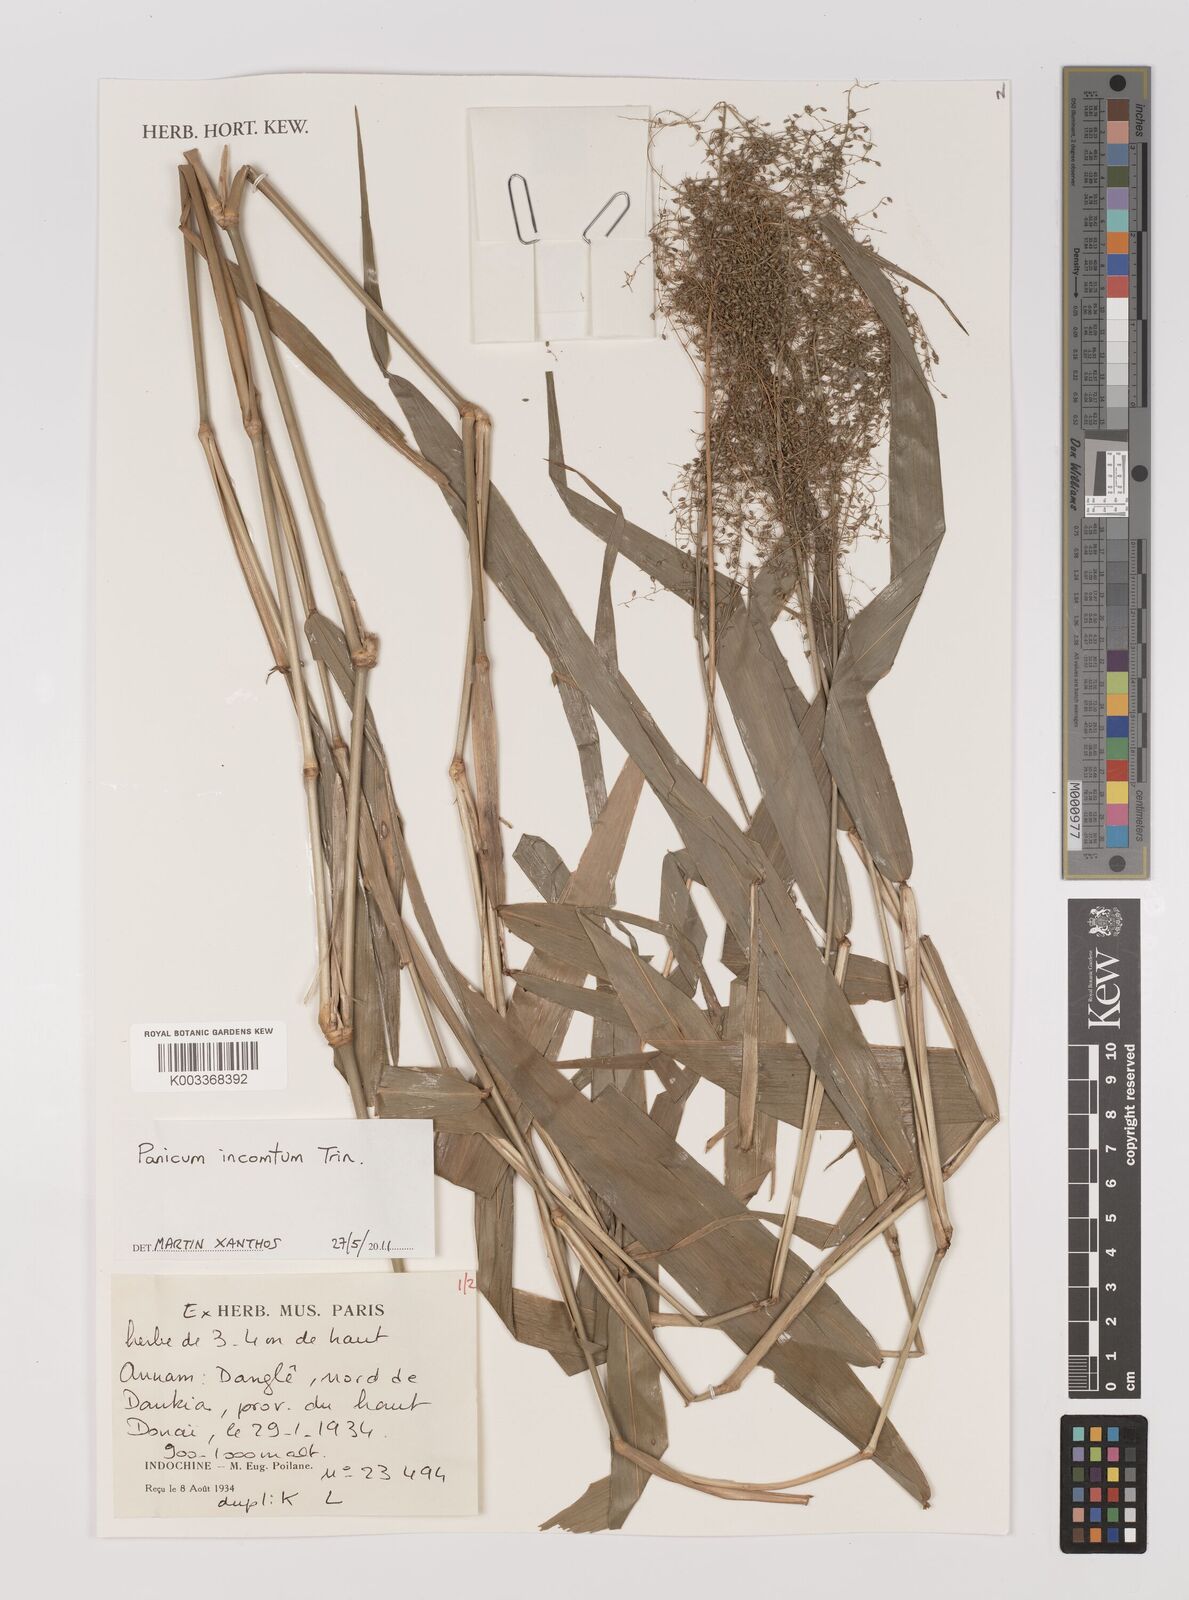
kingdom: Plantae
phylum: Tracheophyta
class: Liliopsida
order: Poales
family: Poaceae
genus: Panicum
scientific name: Panicum incomtum
